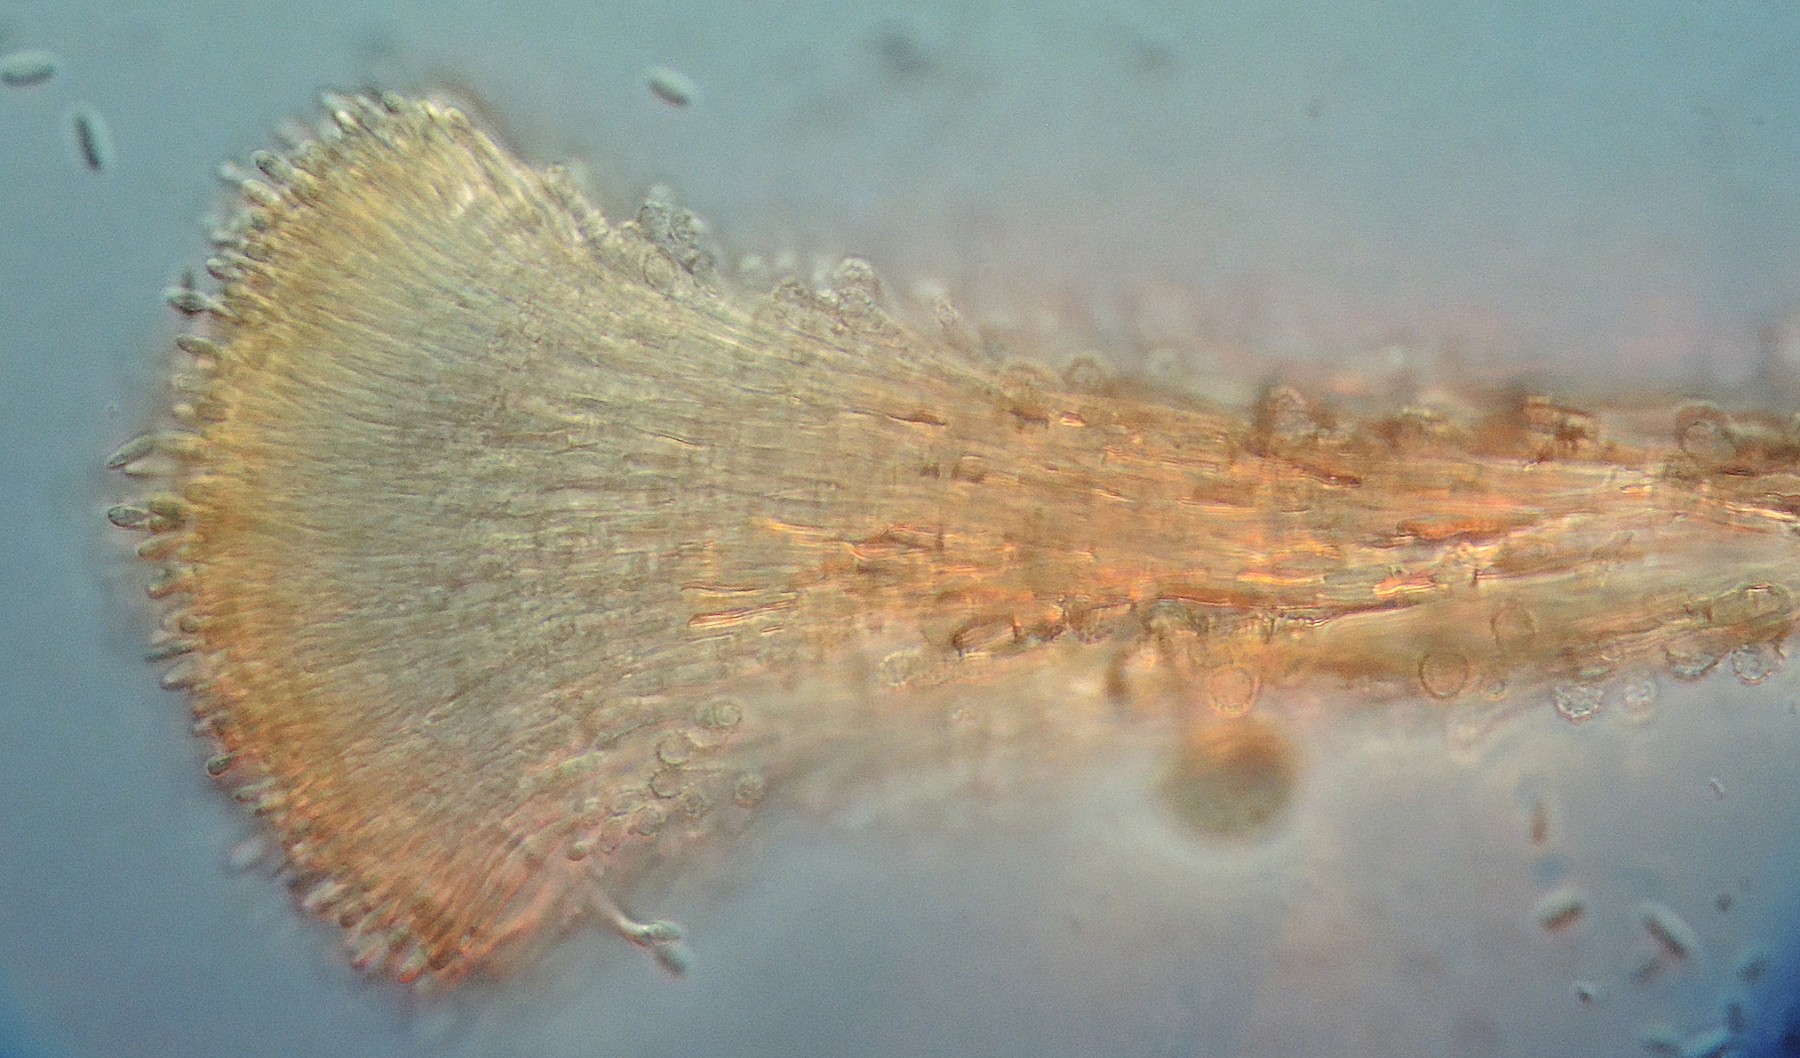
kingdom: Fungi
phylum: Ascomycota
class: Sordariomycetes
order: Hypocreales
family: Stachybotryaceae
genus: Myxospora
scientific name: Myxospora masonii
